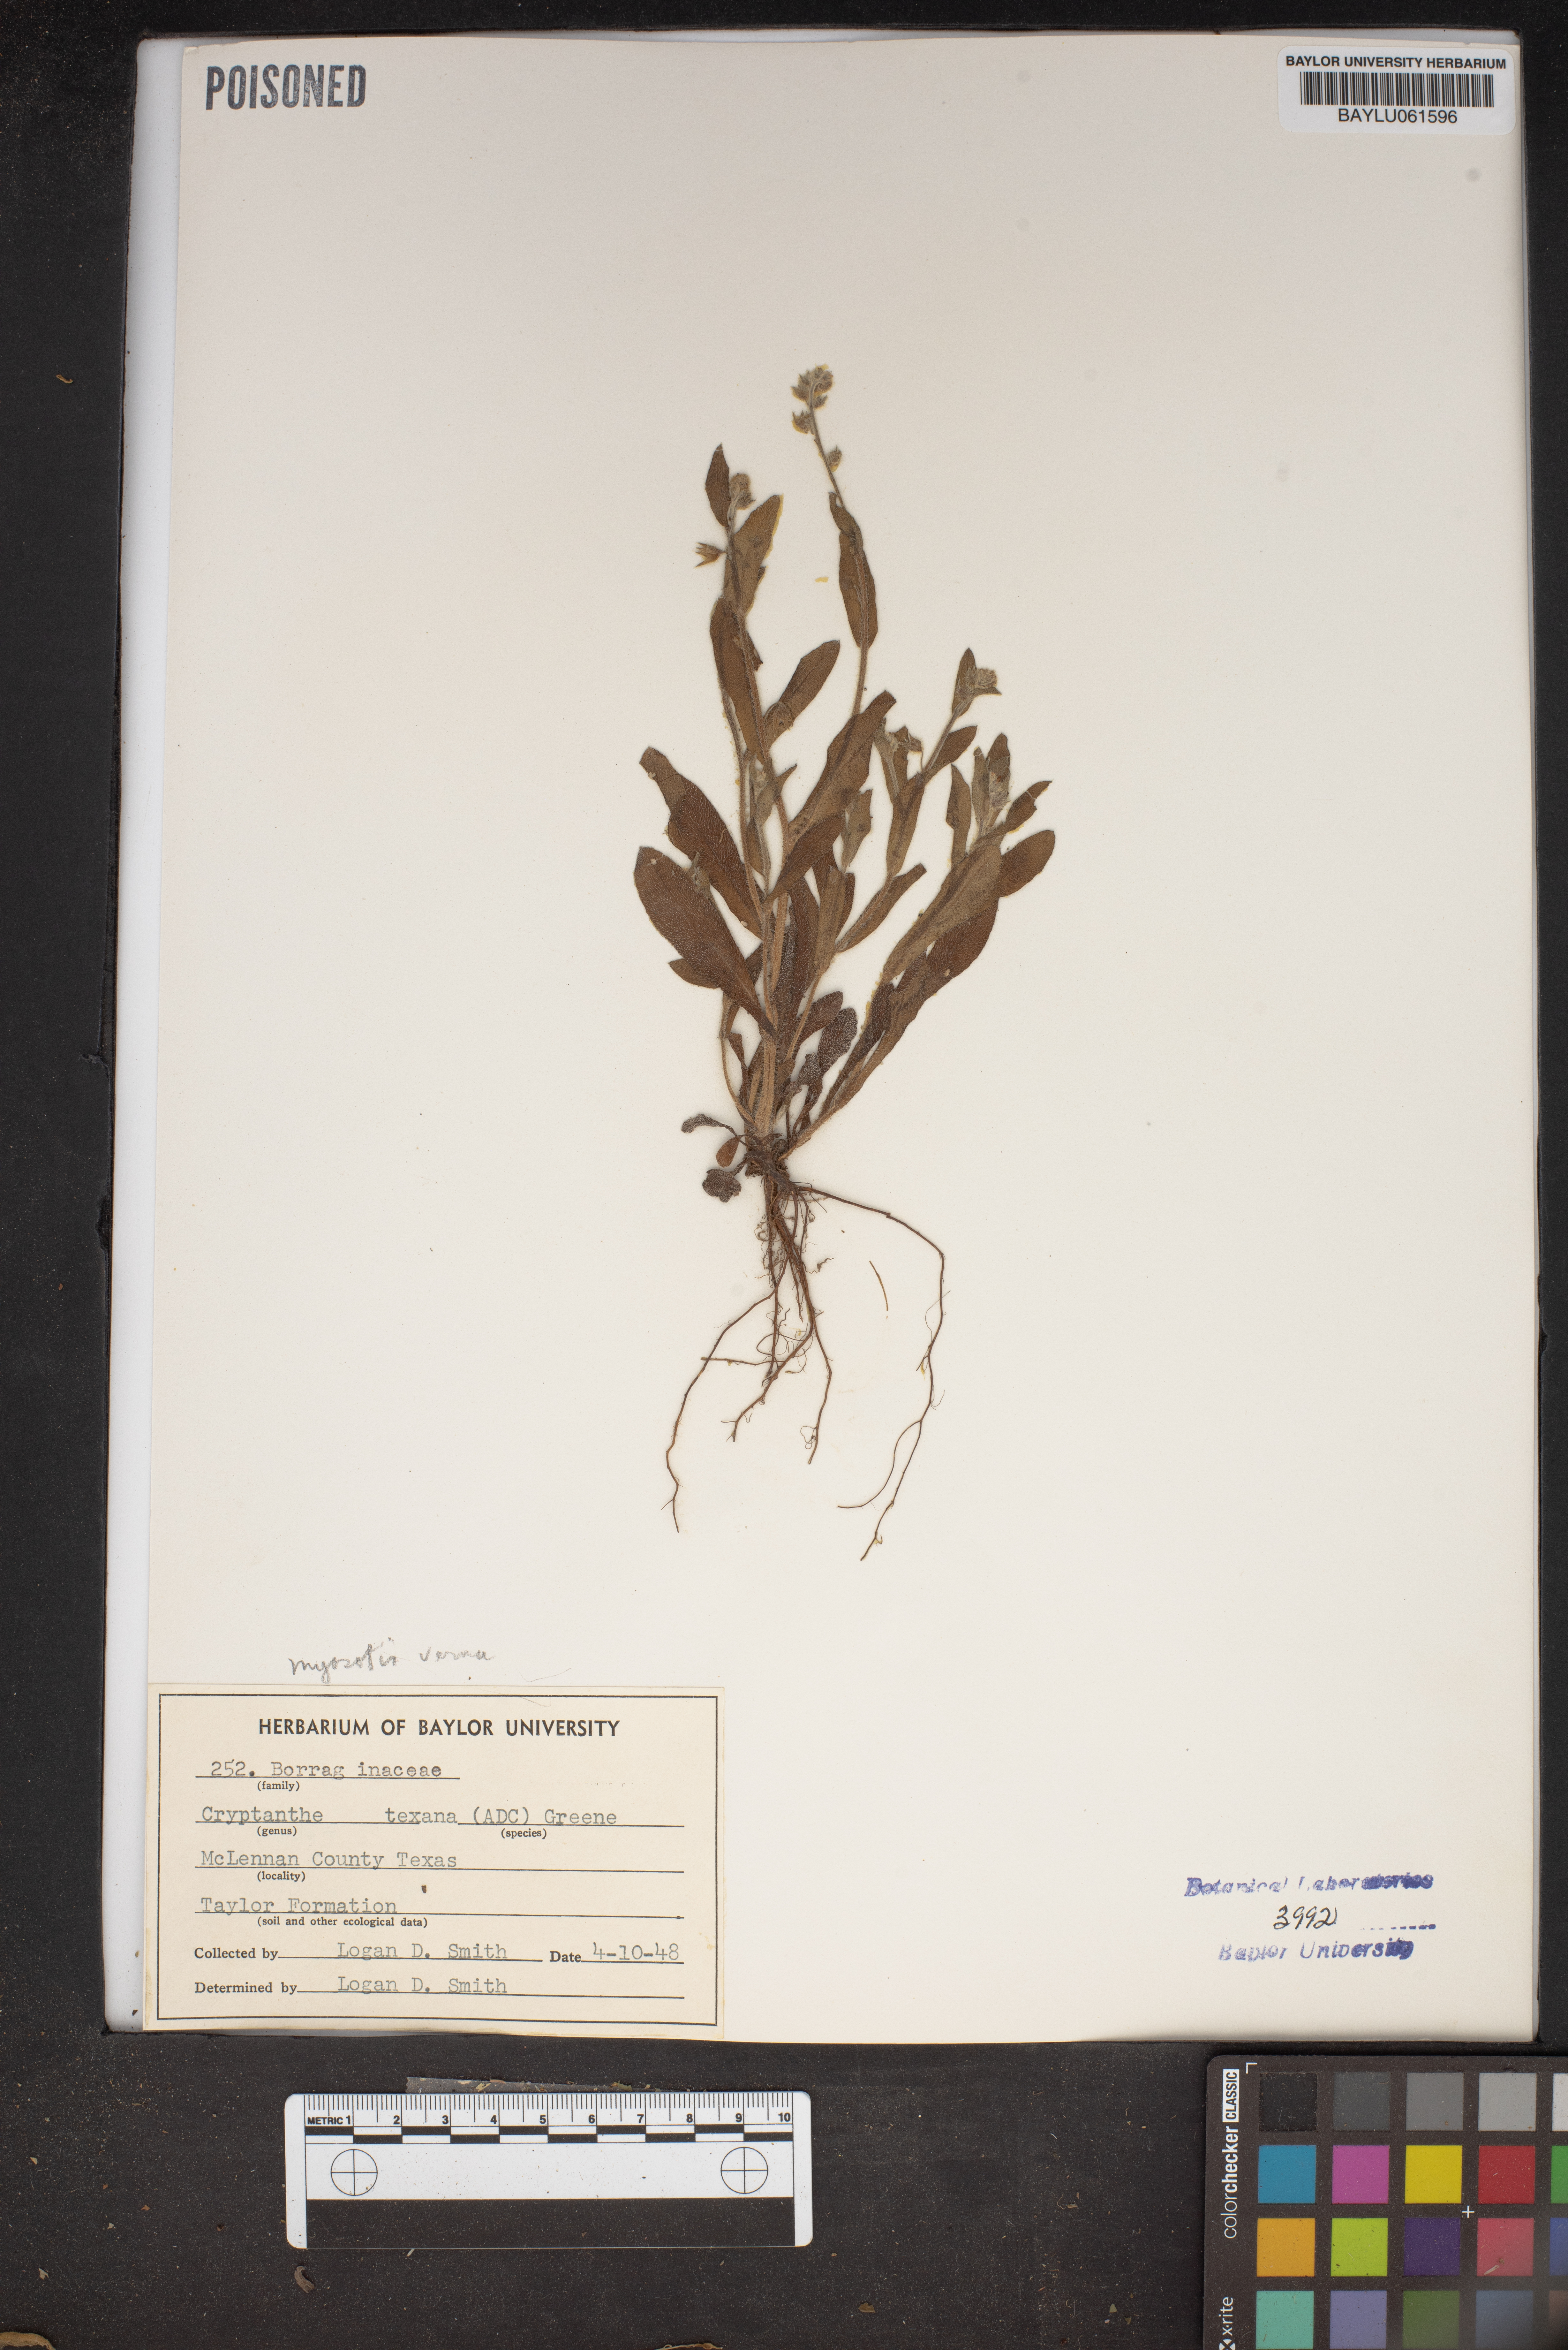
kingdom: Plantae
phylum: Tracheophyta
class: Magnoliopsida
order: Boraginales
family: Boraginaceae
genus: Cryptantha
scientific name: Cryptantha texana
